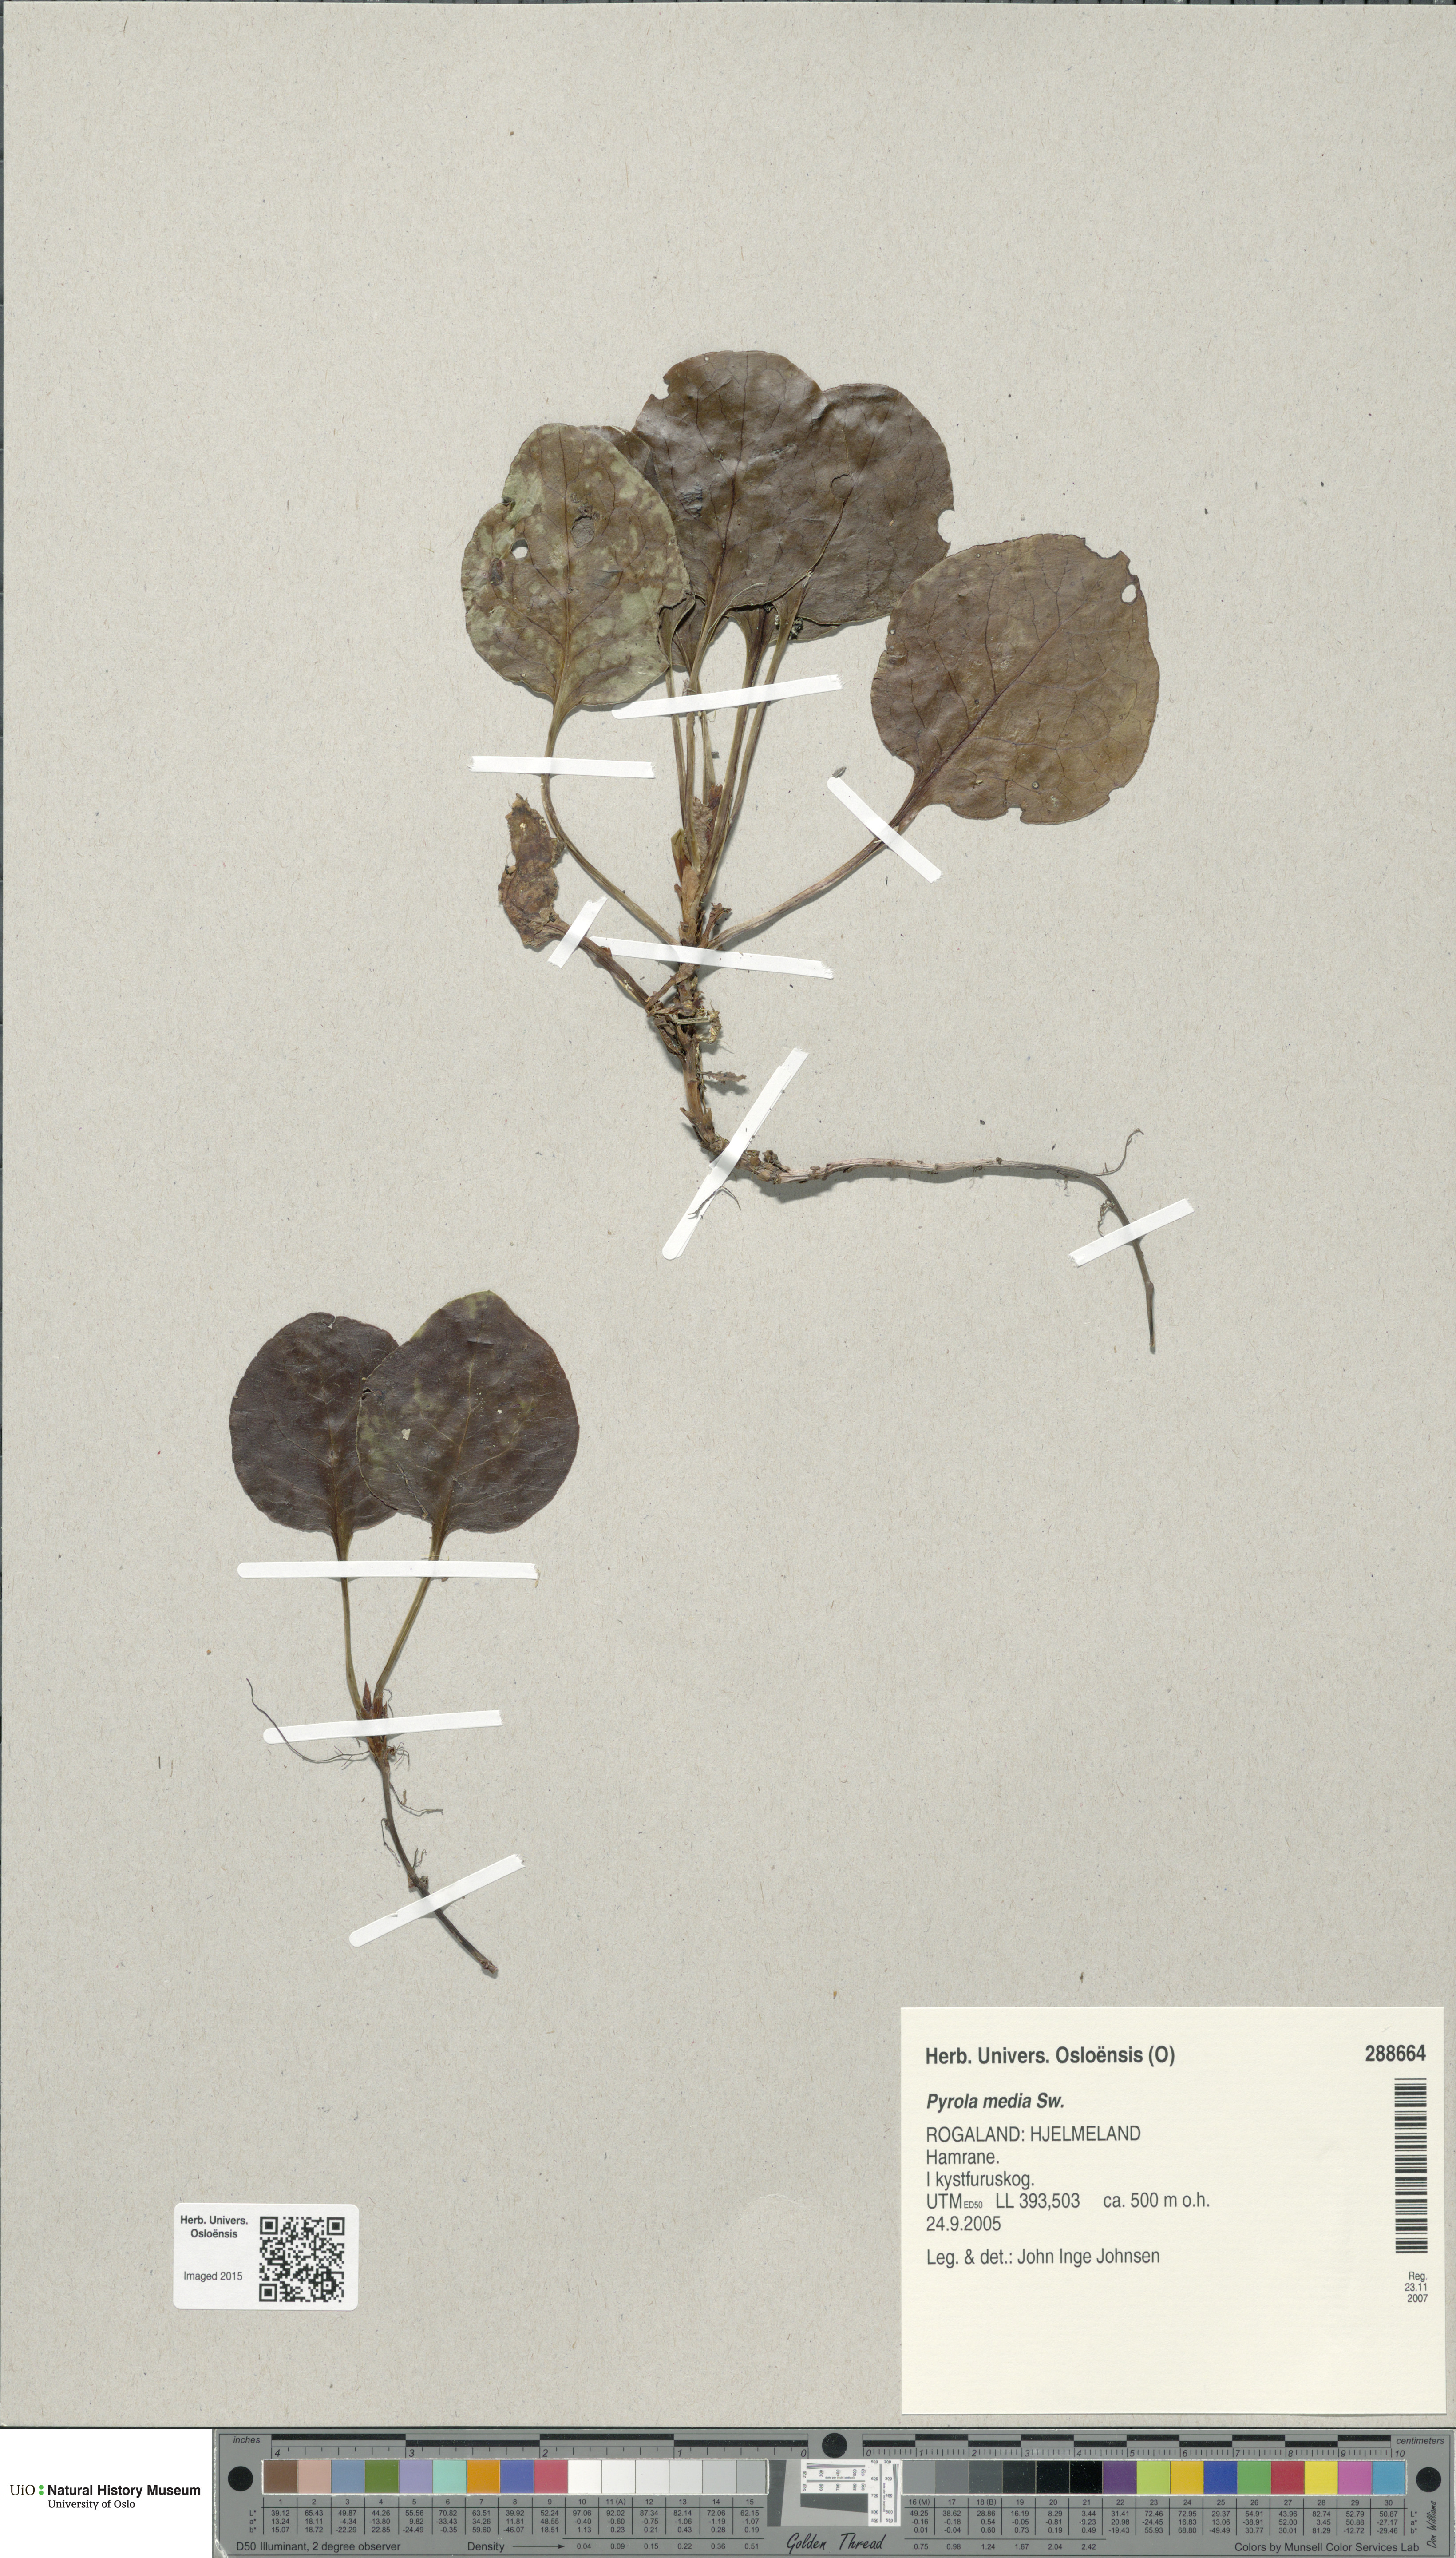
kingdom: Plantae
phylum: Tracheophyta
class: Magnoliopsida
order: Ericales
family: Ericaceae
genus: Pyrola
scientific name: Pyrola media
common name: Intermediate wintergreen
